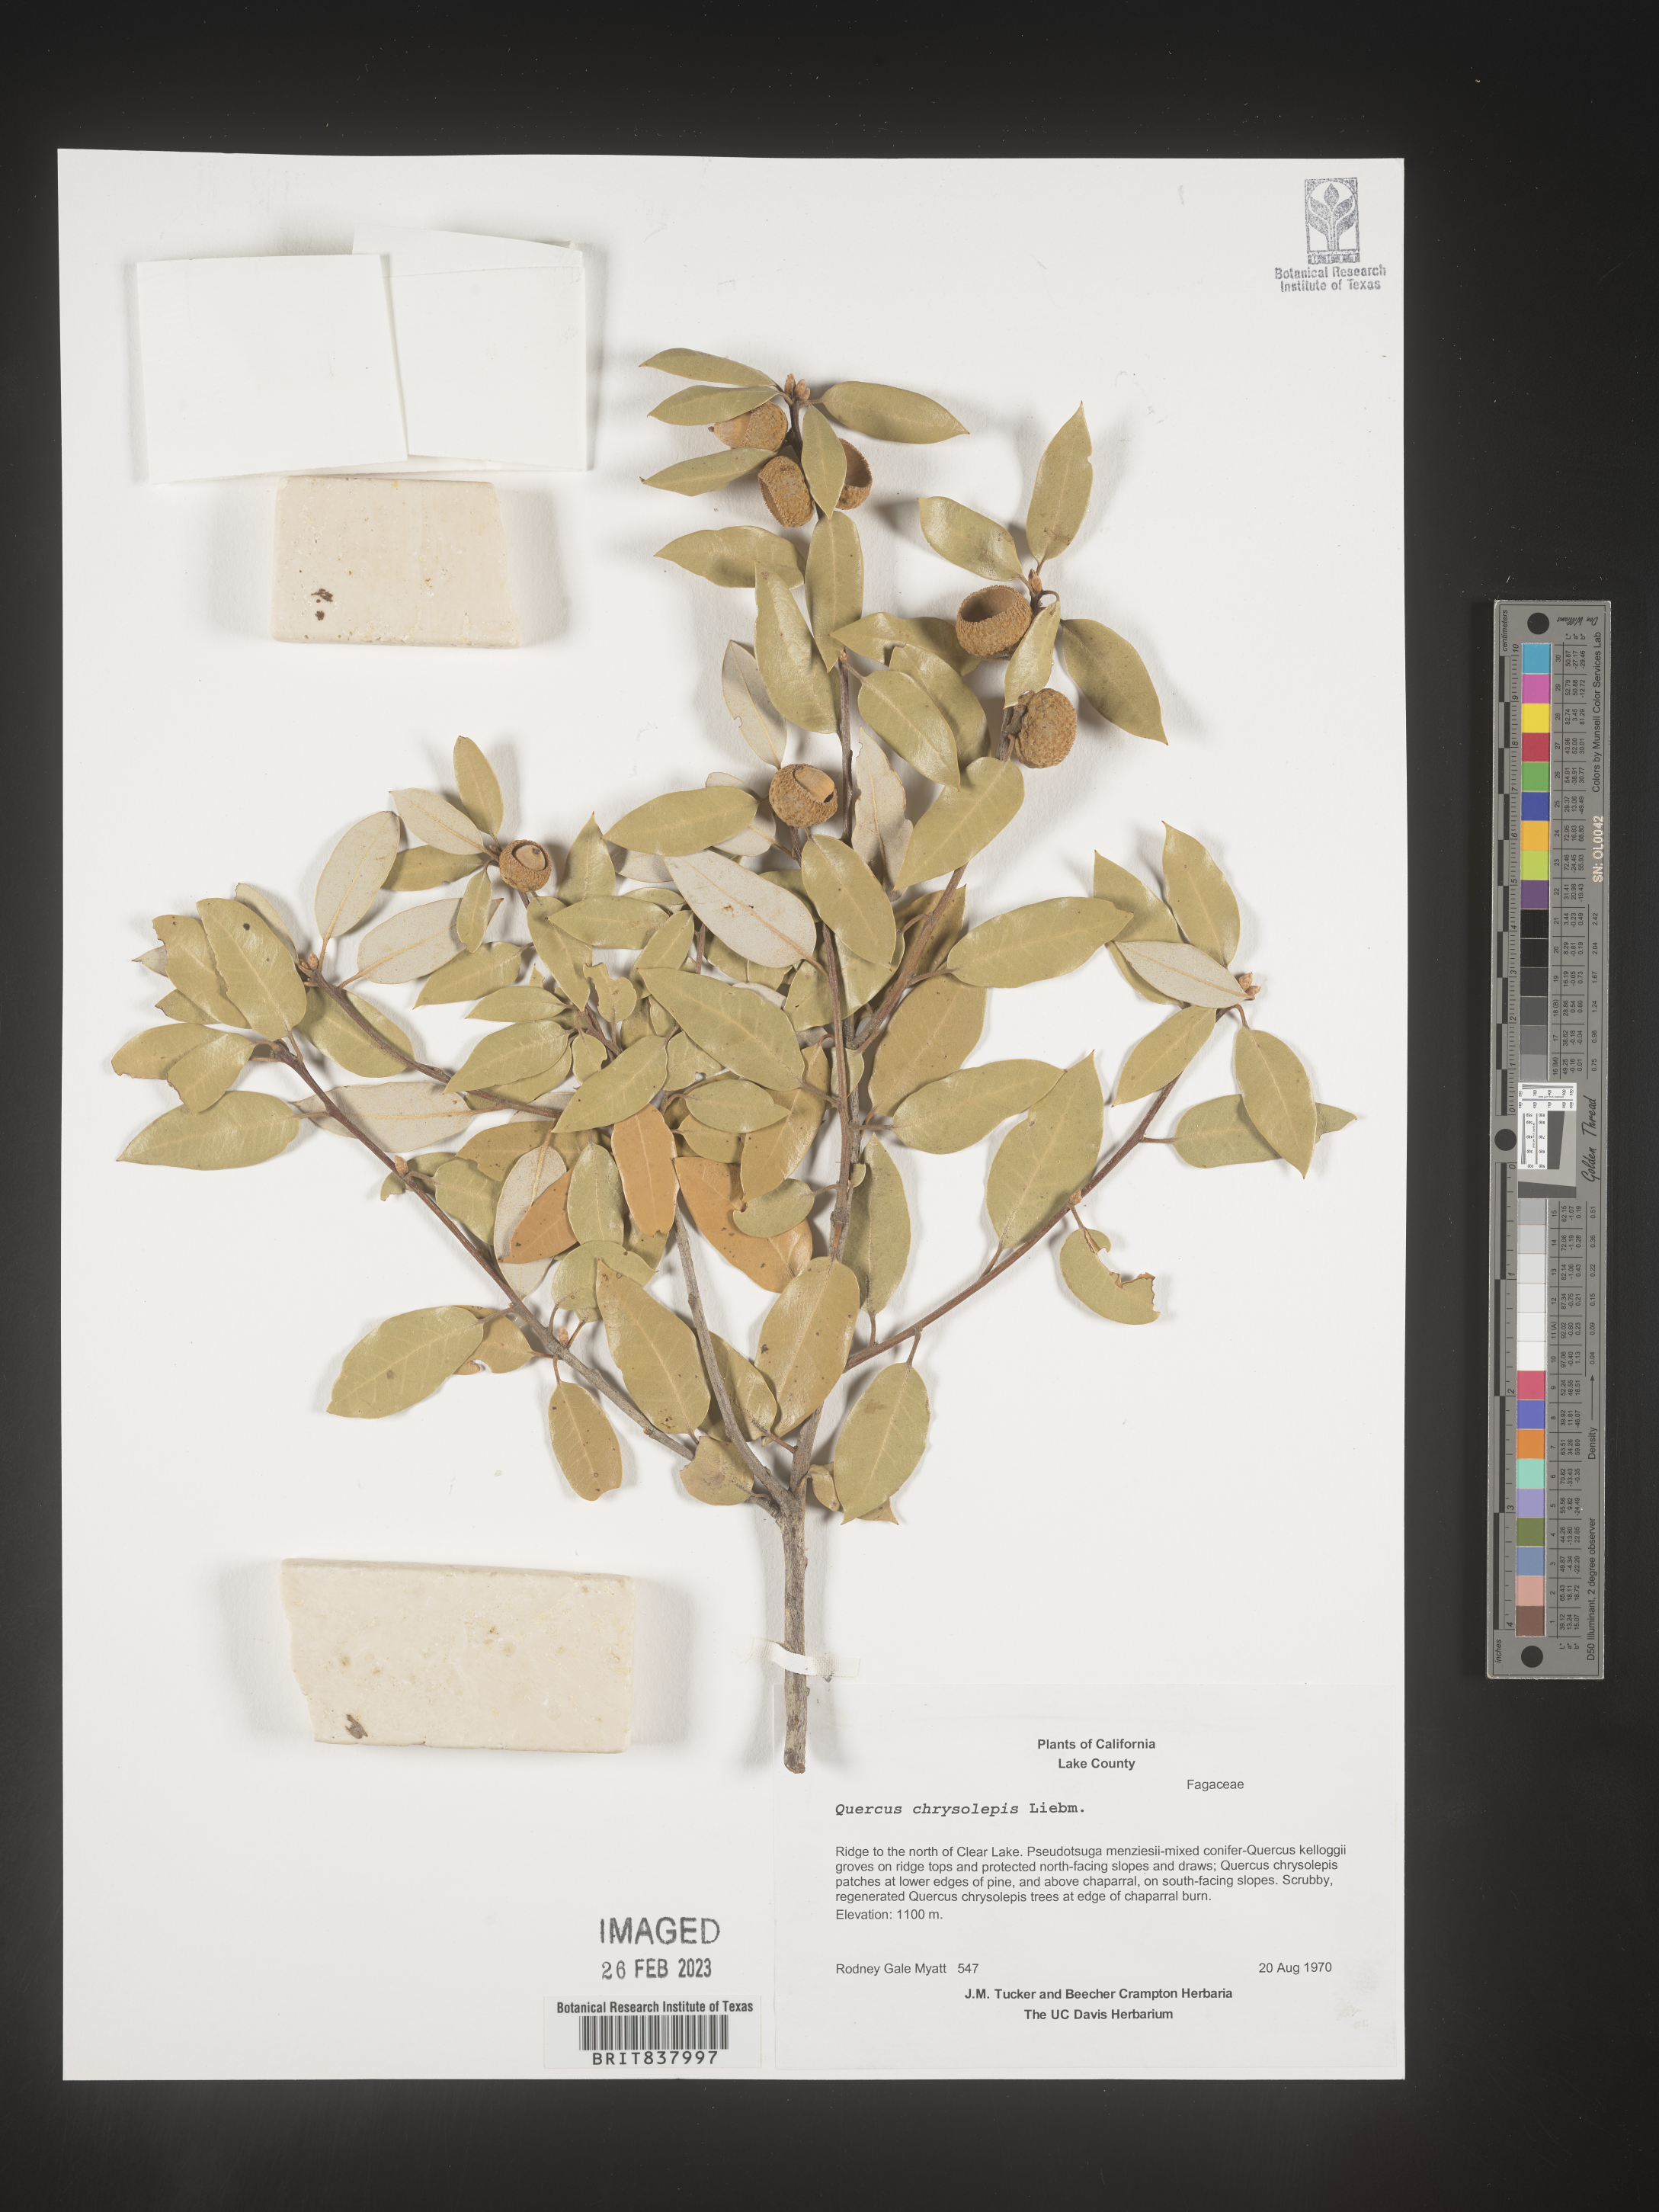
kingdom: Plantae
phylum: Tracheophyta
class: Magnoliopsida
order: Fagales
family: Fagaceae
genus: Quercus
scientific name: Quercus chrysolepis
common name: Canyon live oak
